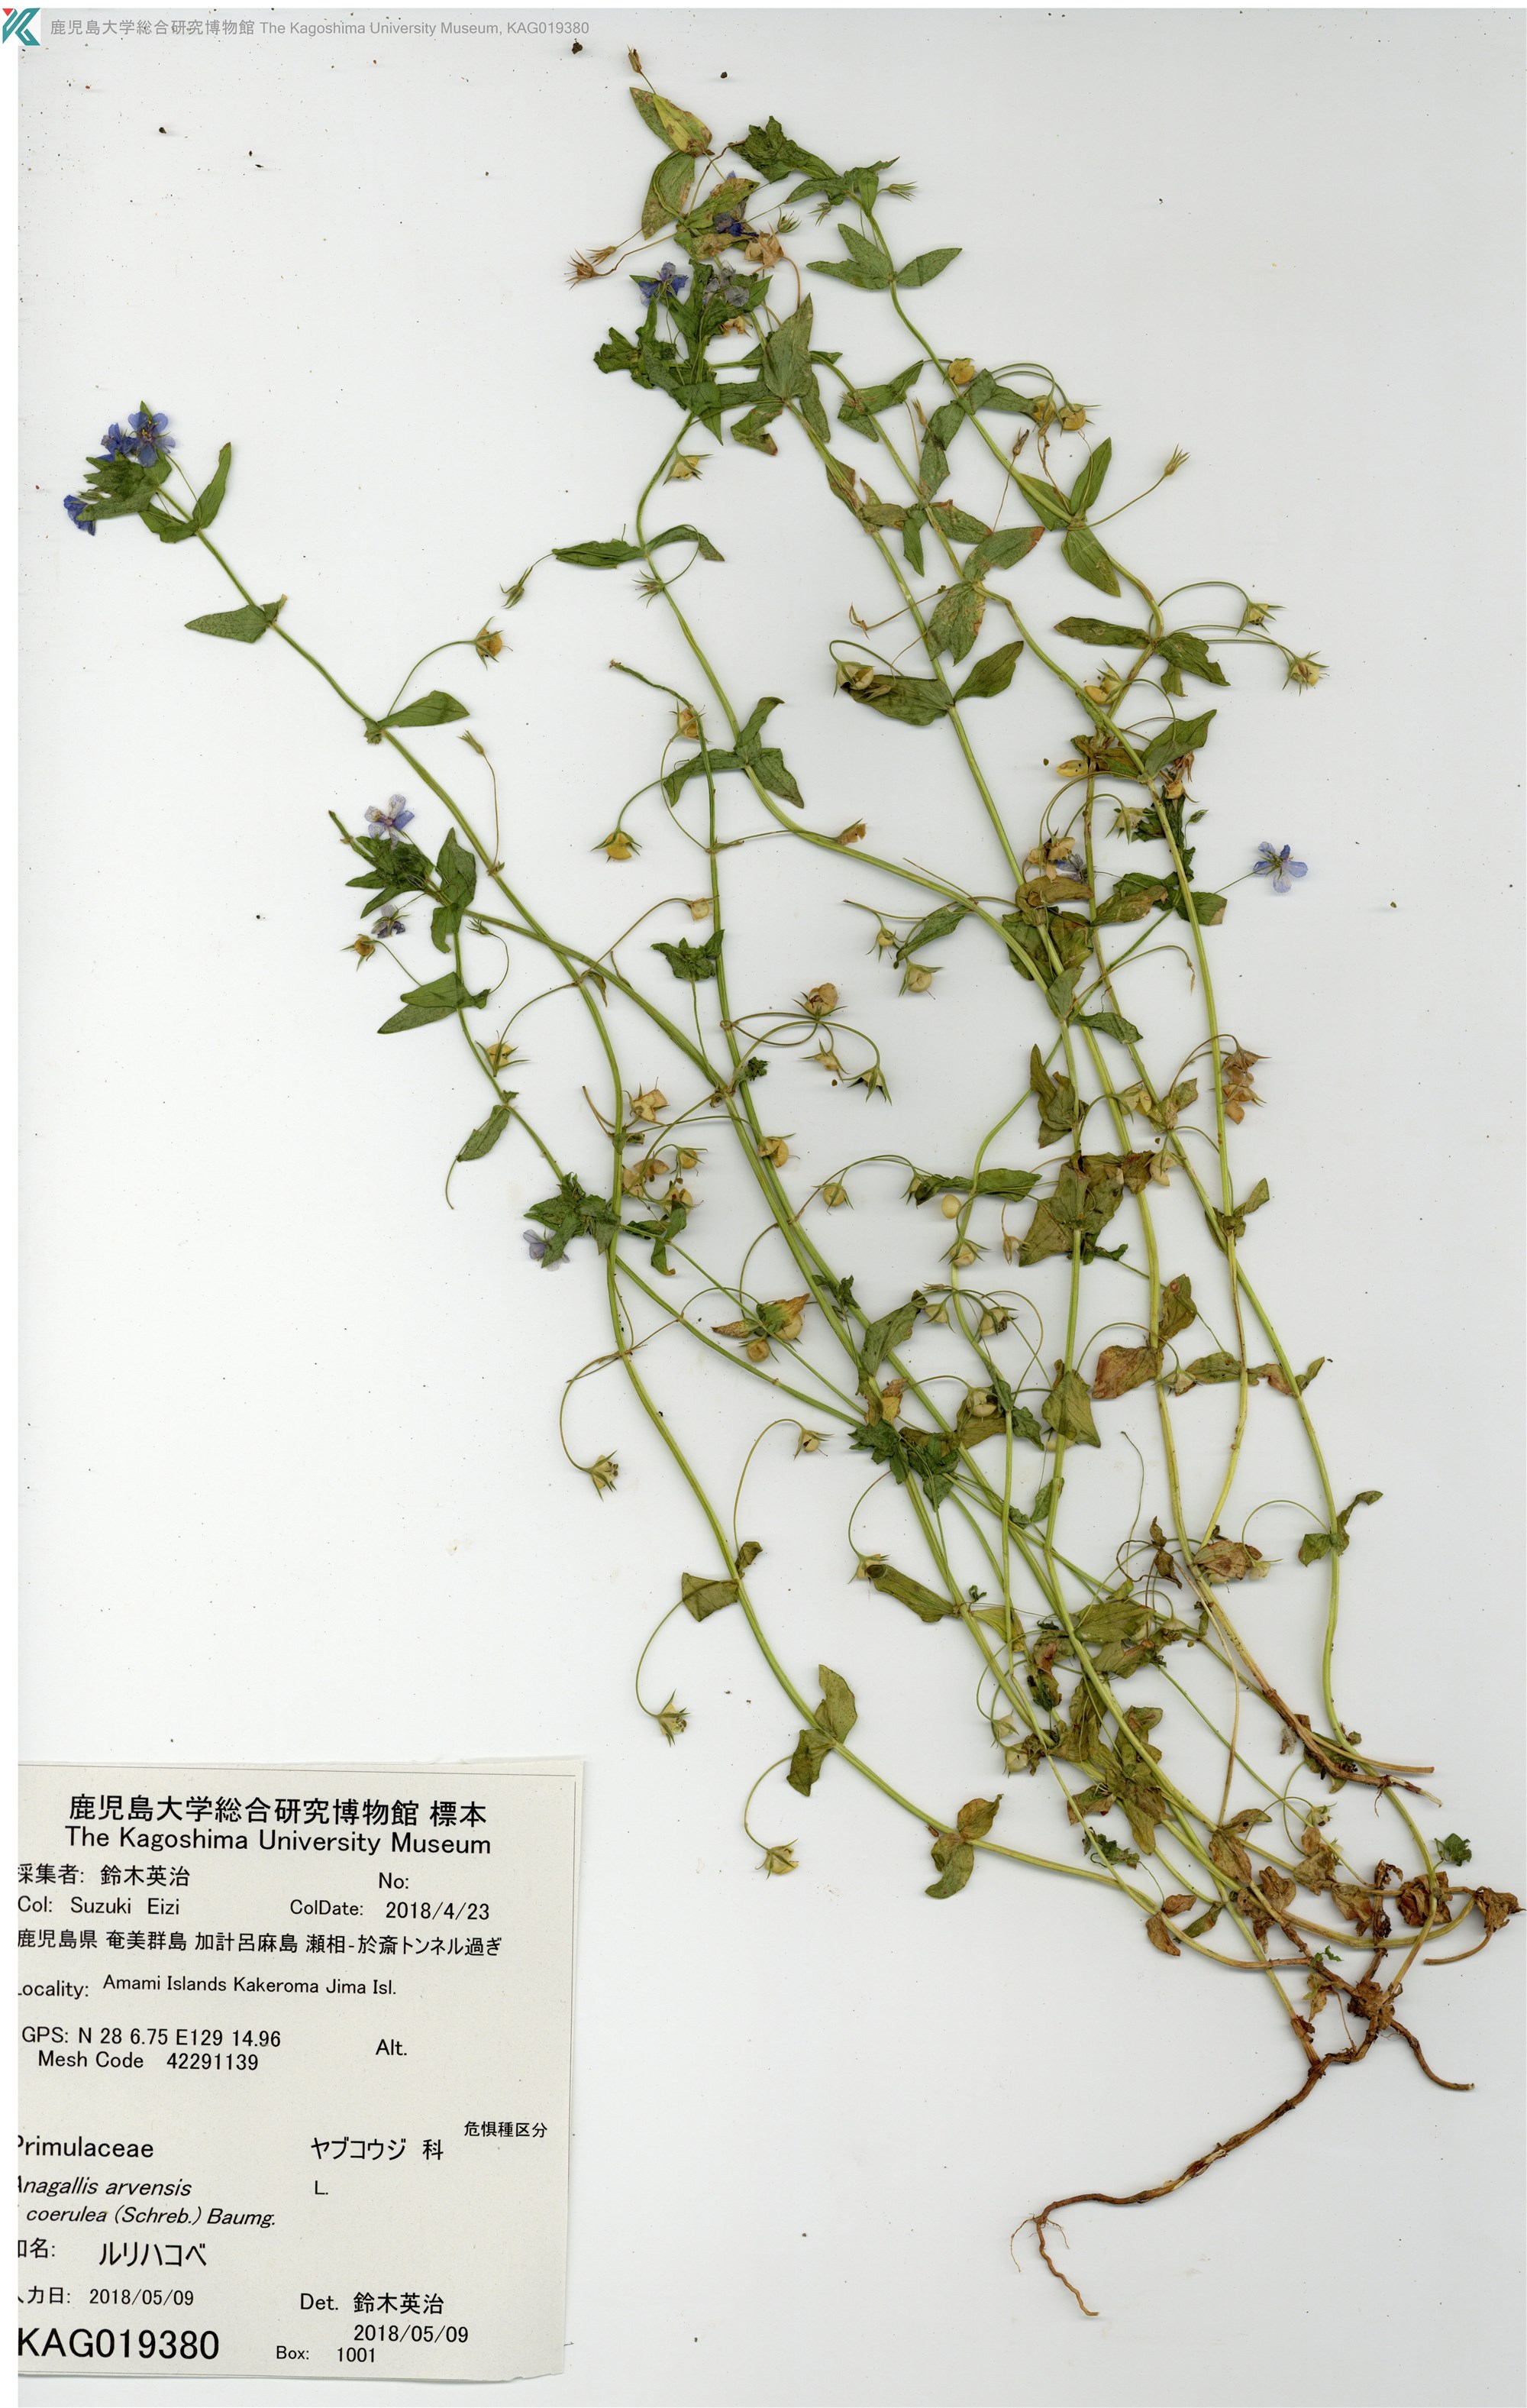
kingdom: Plantae
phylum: Tracheophyta
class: Magnoliopsida
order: Ericales
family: Primulaceae
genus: Lysimachia
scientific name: Lysimachia loeflingii
